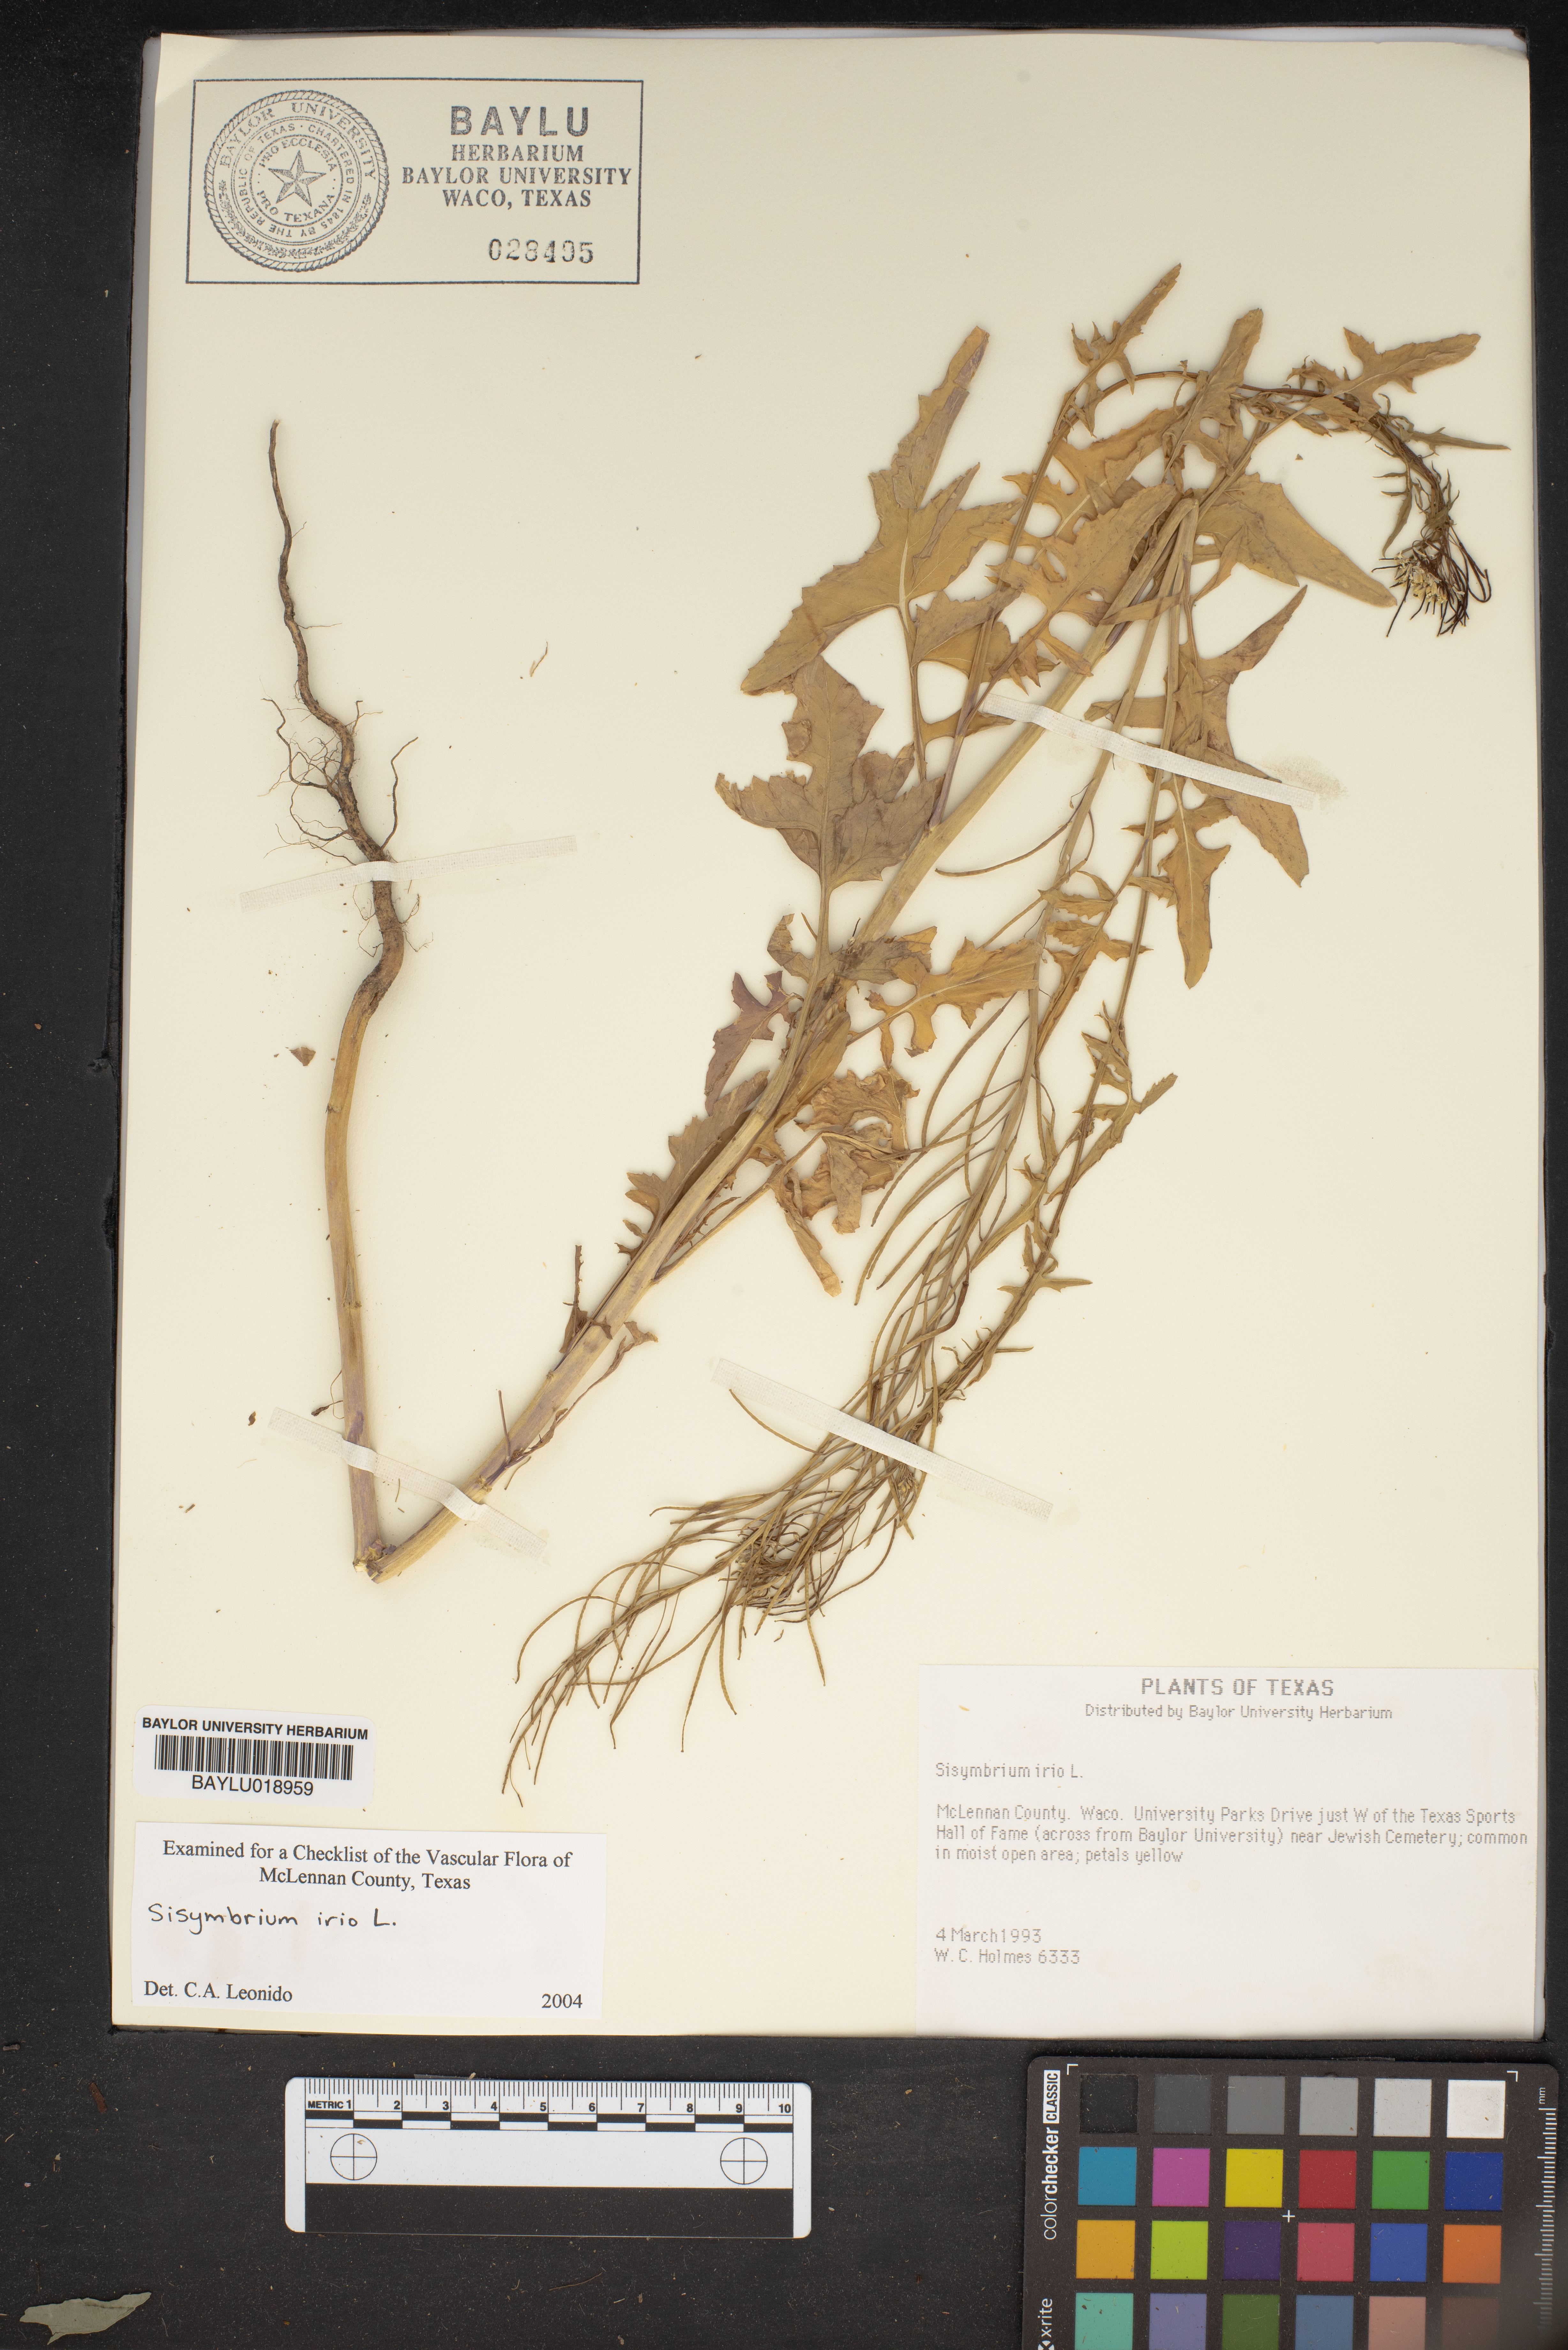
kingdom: Plantae
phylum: Tracheophyta
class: Magnoliopsida
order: Brassicales
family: Brassicaceae
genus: Sisymbrium
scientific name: Sisymbrium irio
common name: London rocket
